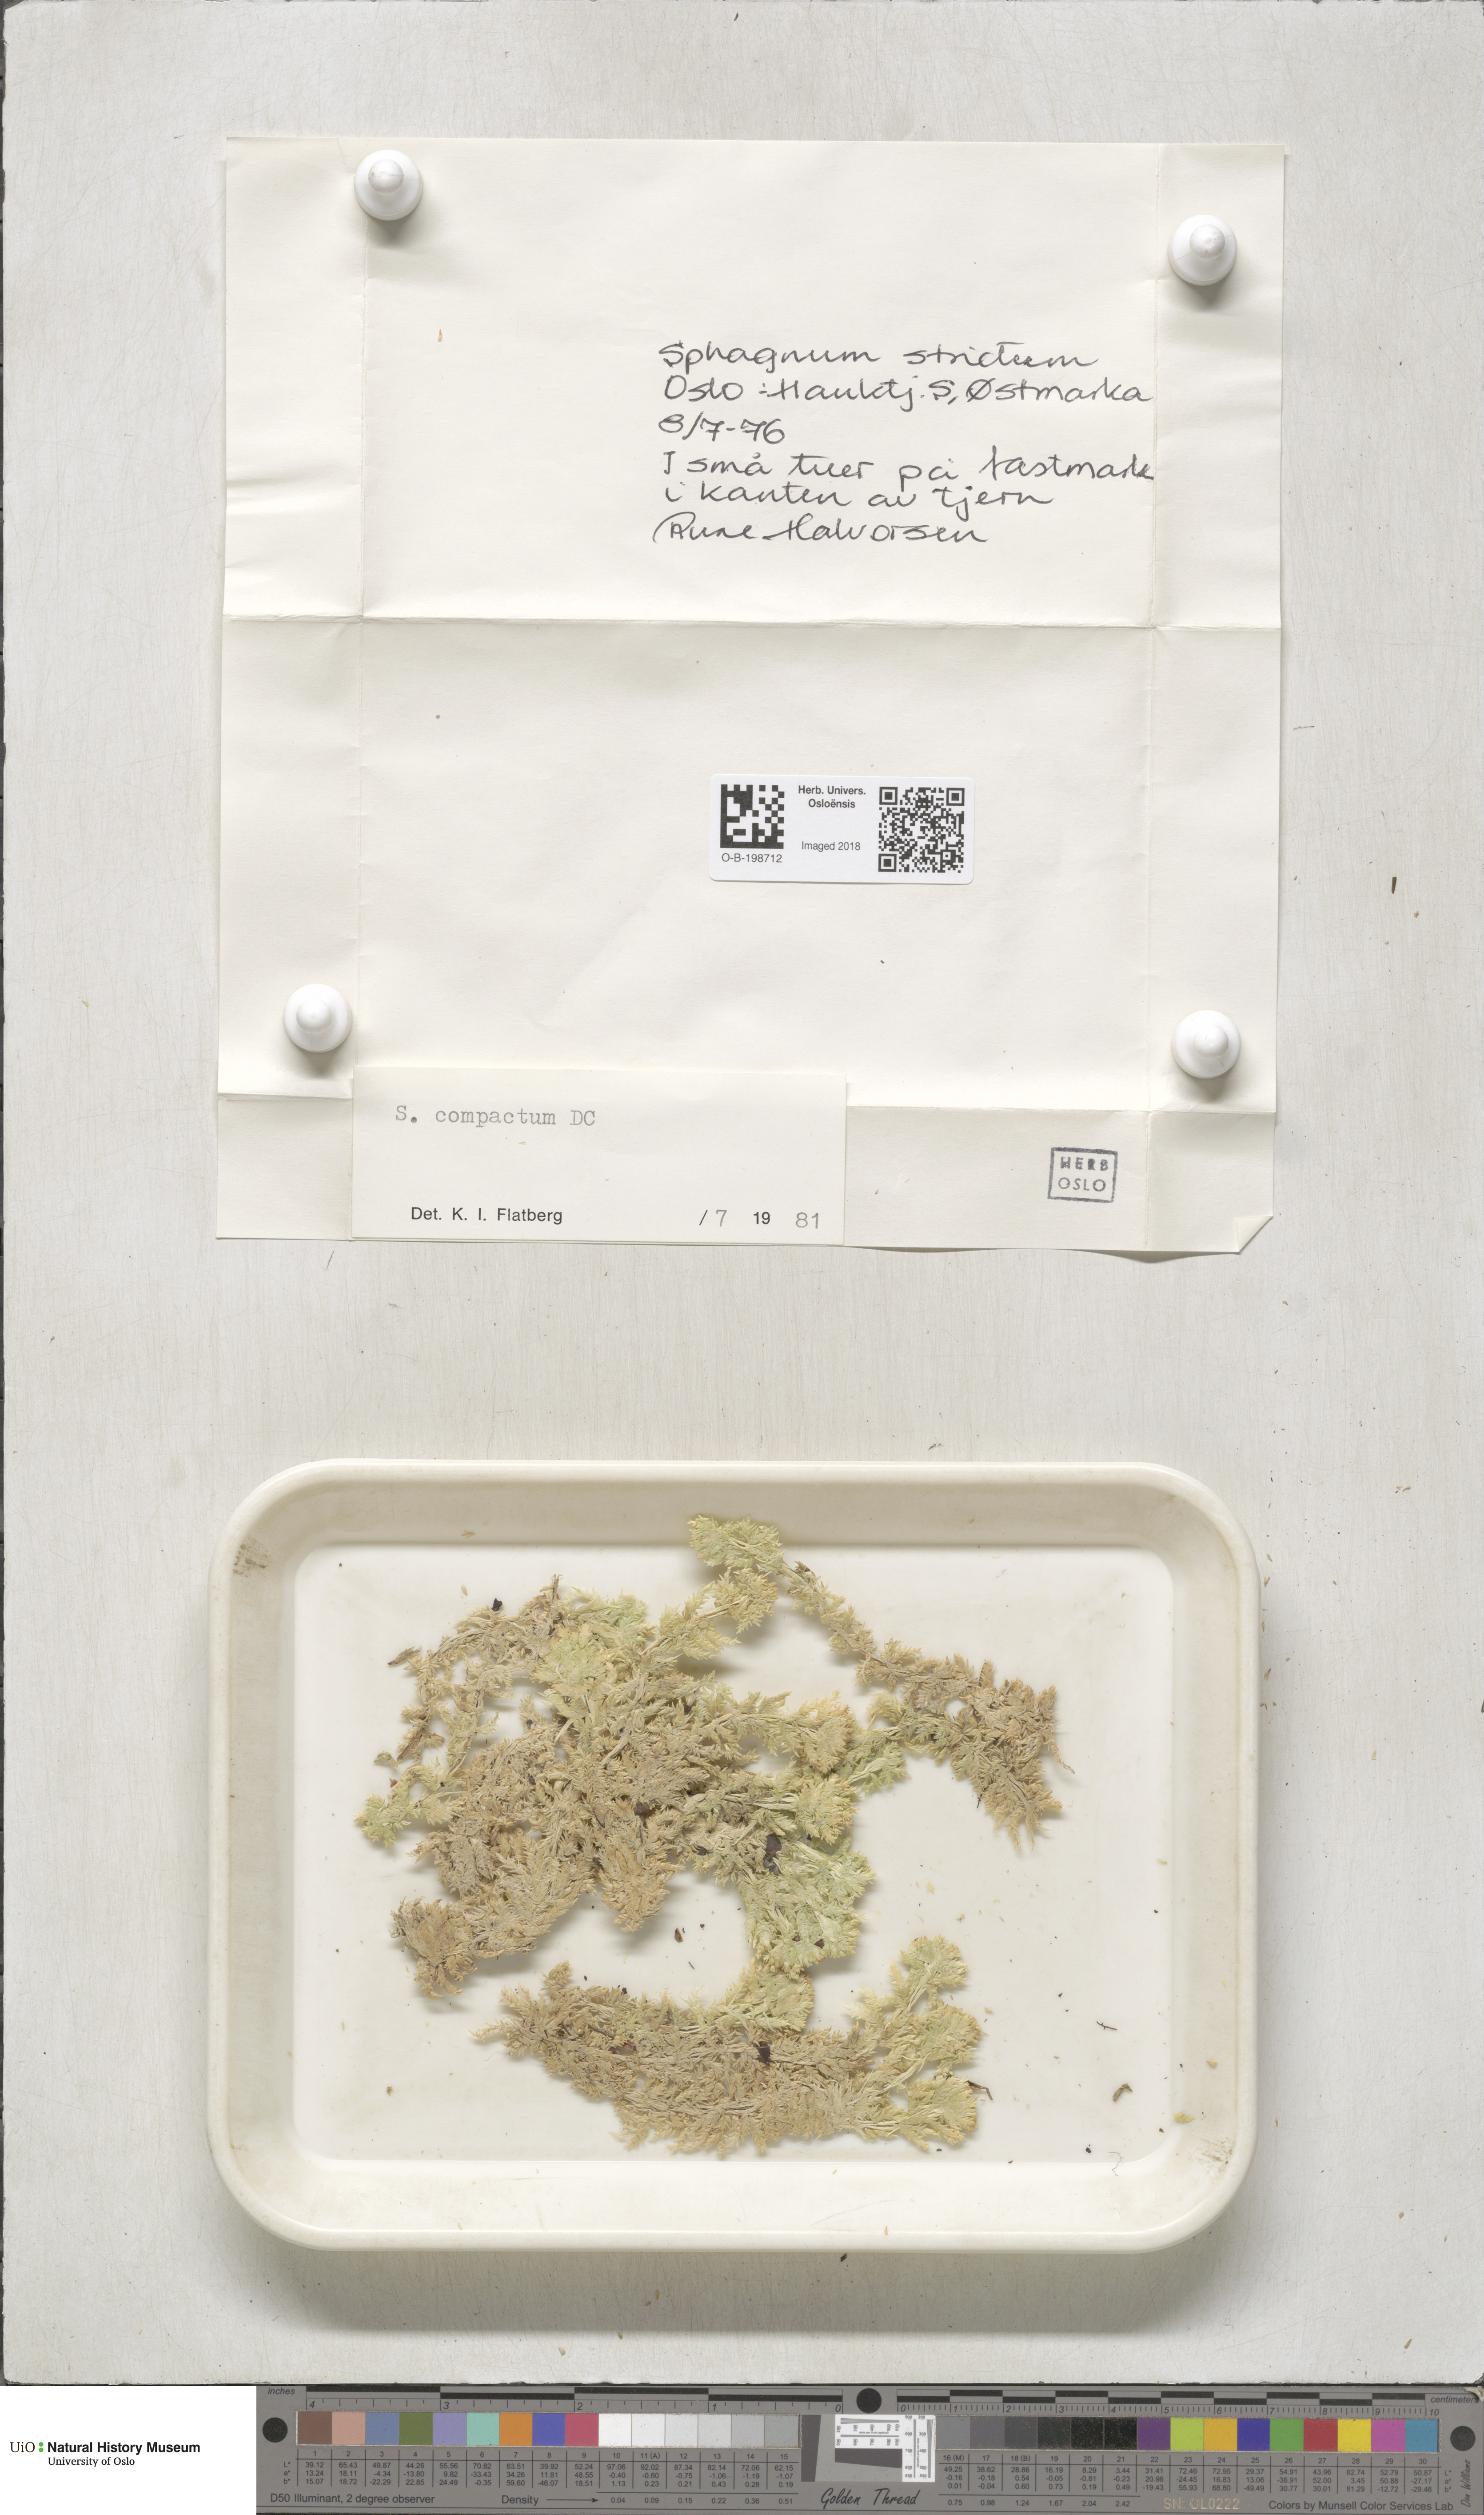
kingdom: Plantae
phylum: Bryophyta
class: Sphagnopsida
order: Sphagnales
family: Sphagnaceae
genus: Sphagnum
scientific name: Sphagnum compactum
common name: Compact peat moss
